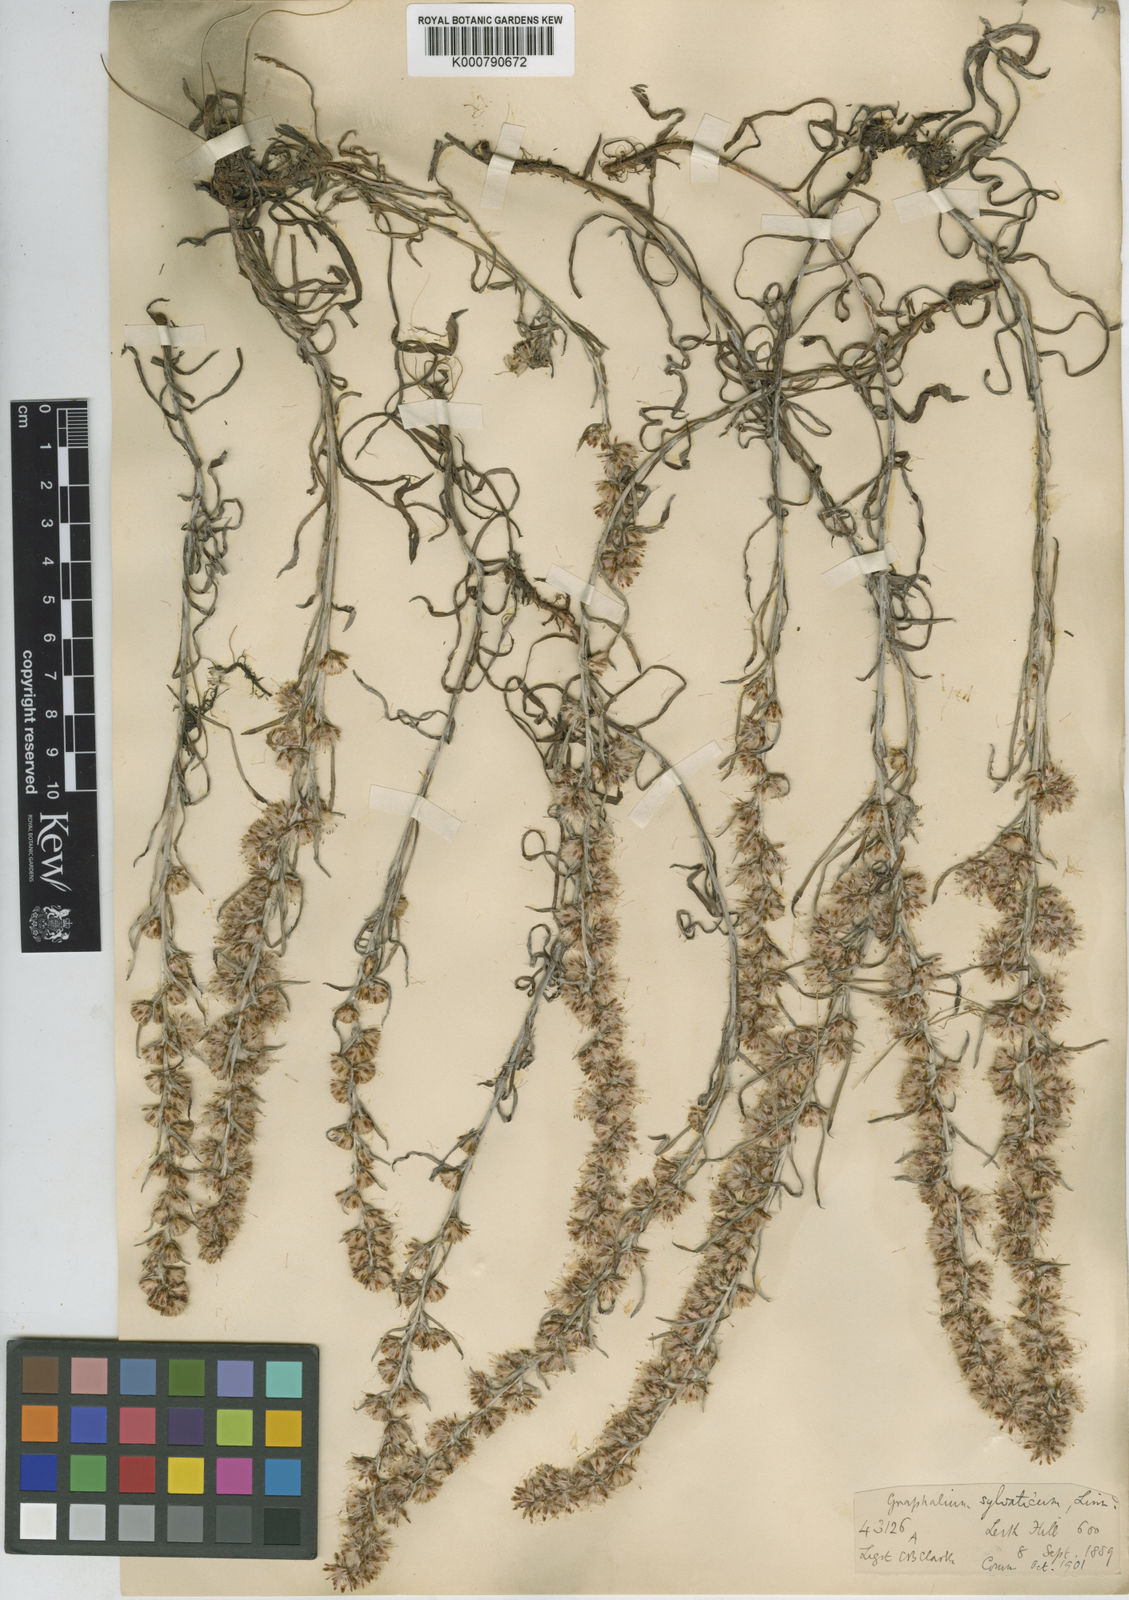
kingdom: Plantae
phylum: Tracheophyta
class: Magnoliopsida
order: Asterales
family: Asteraceae
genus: Omalotheca
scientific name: Omalotheca sylvatica
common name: Heath cudweed
